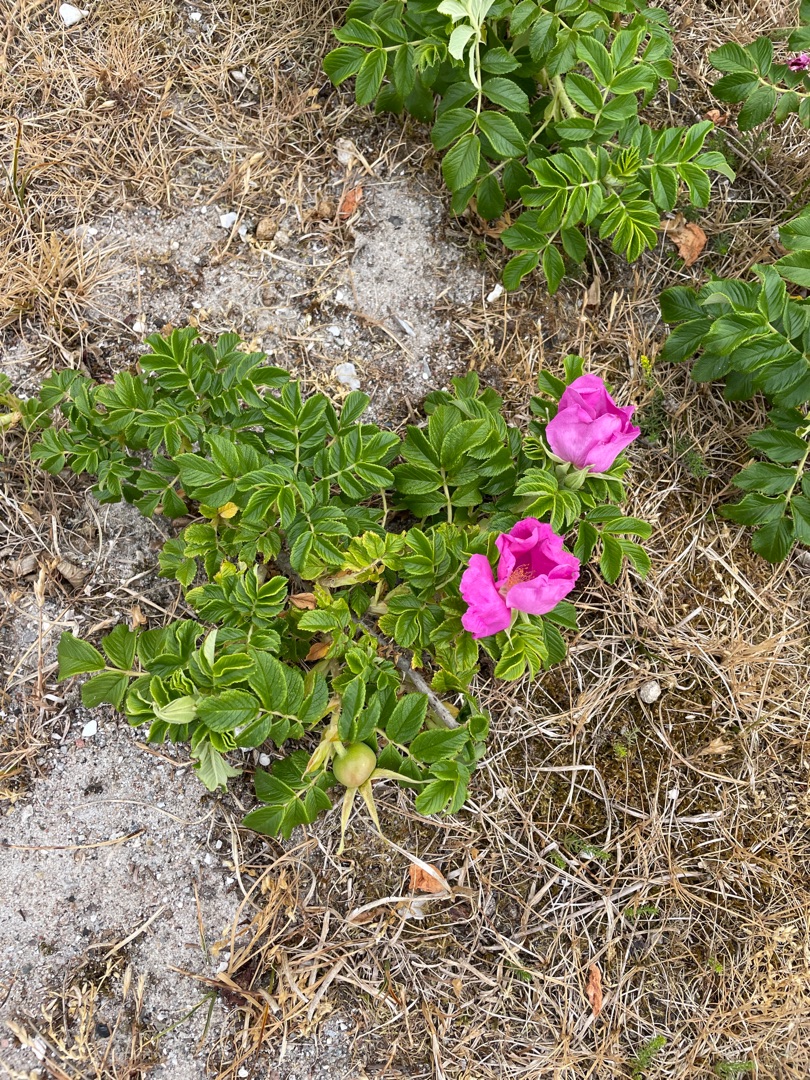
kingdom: Plantae
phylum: Tracheophyta
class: Magnoliopsida
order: Rosales
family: Rosaceae
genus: Rosa
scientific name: Rosa rugosa
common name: Rynket rose
